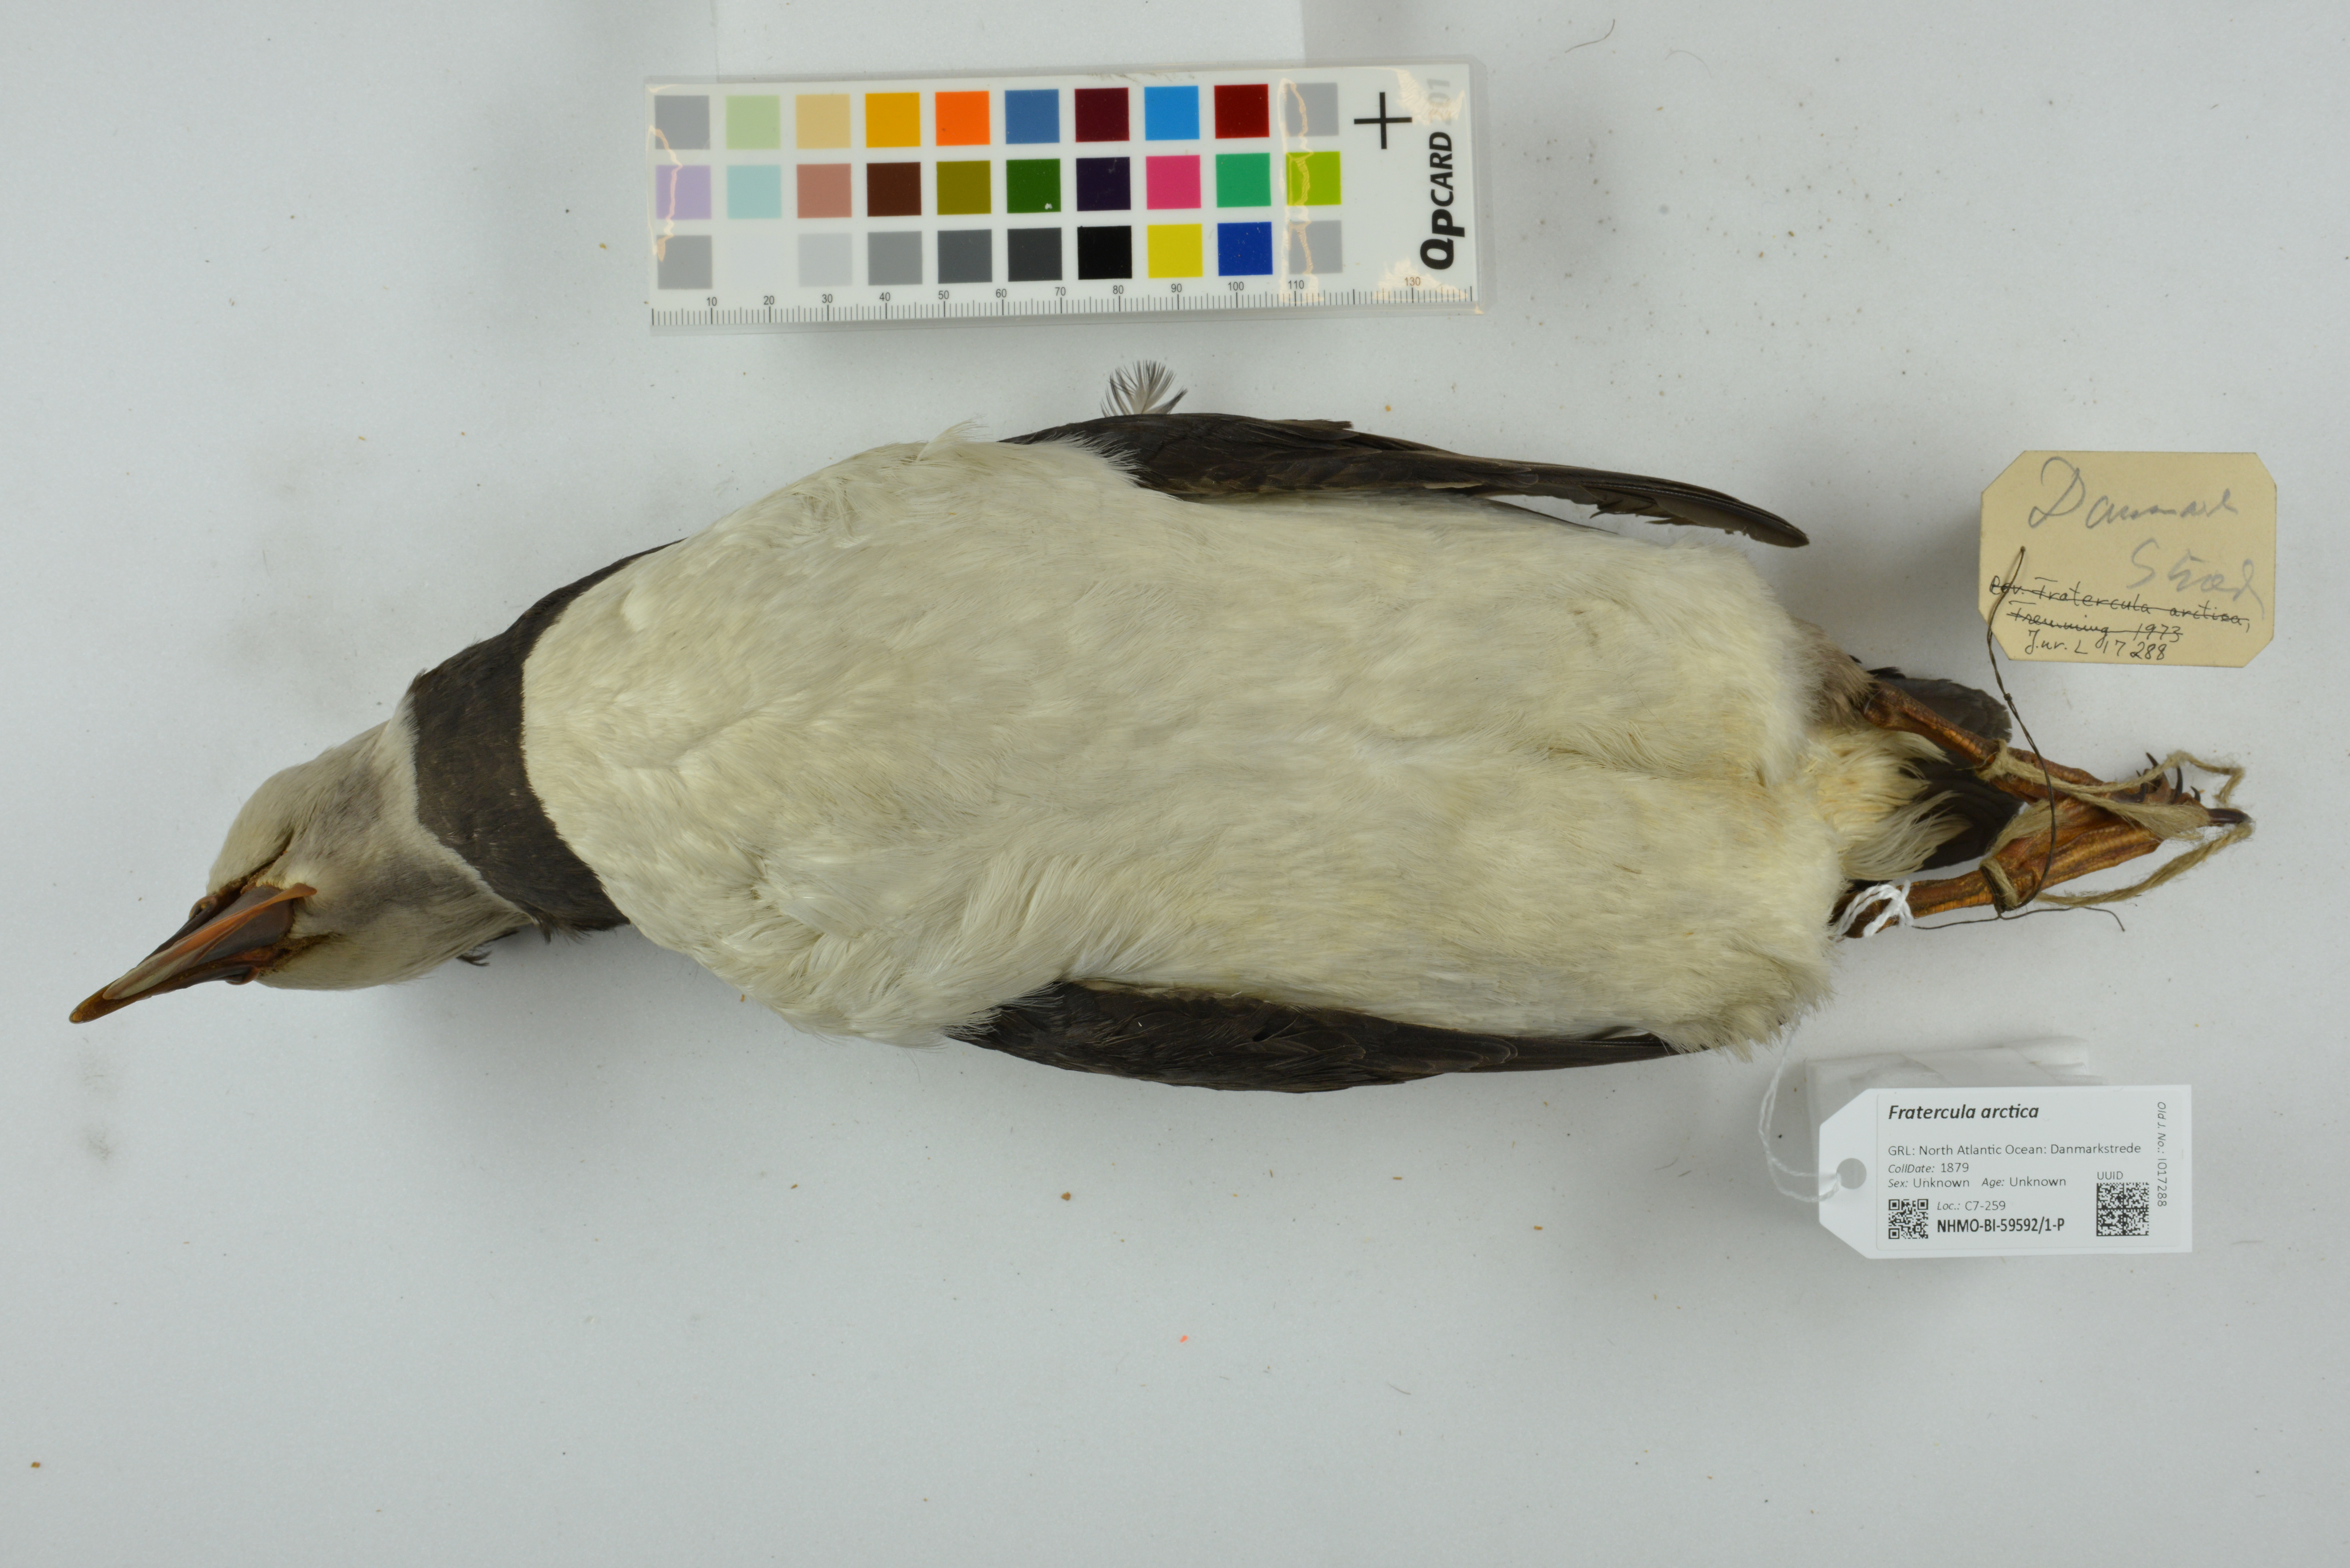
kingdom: Animalia
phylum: Chordata
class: Aves
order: Charadriiformes
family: Alcidae
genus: Fratercula
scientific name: Fratercula arctica
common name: Atlantic puffin
